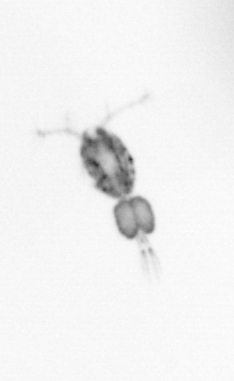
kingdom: Animalia
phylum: Arthropoda
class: Copepoda
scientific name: Copepoda
